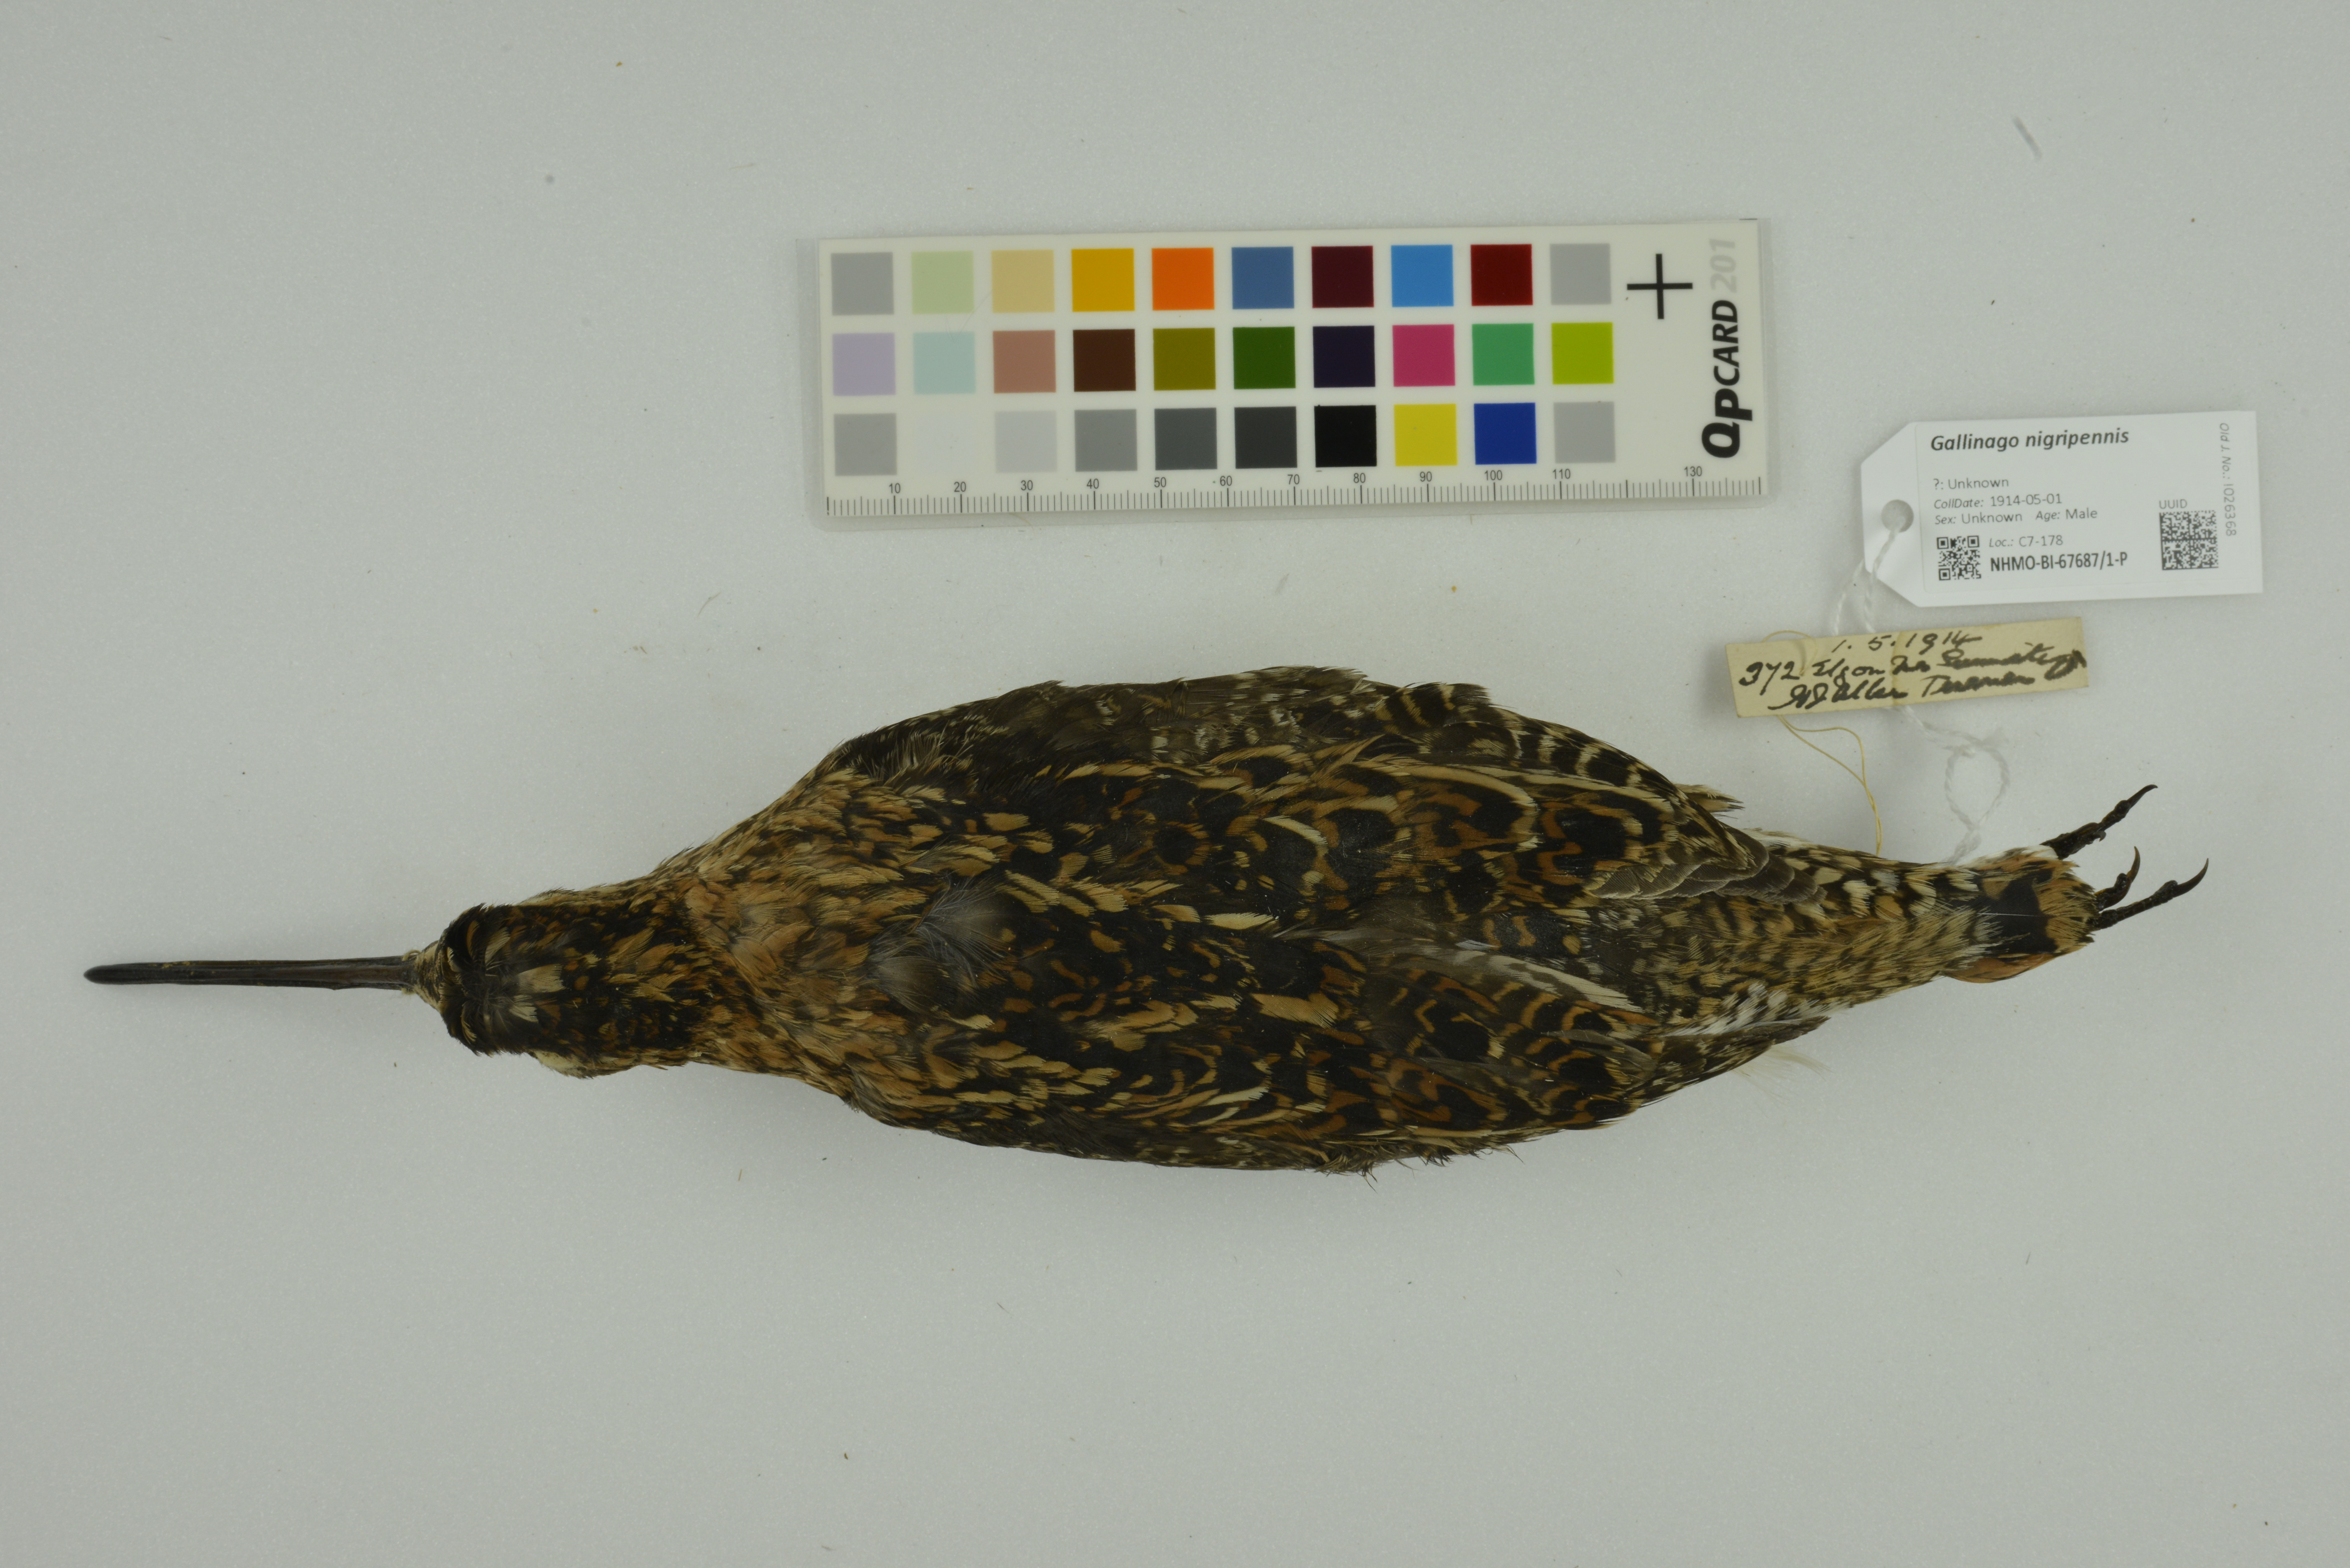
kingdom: Animalia
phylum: Chordata
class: Aves
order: Charadriiformes
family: Scolopacidae
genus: Gallinago
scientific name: Gallinago nigripennis
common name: African snipe
